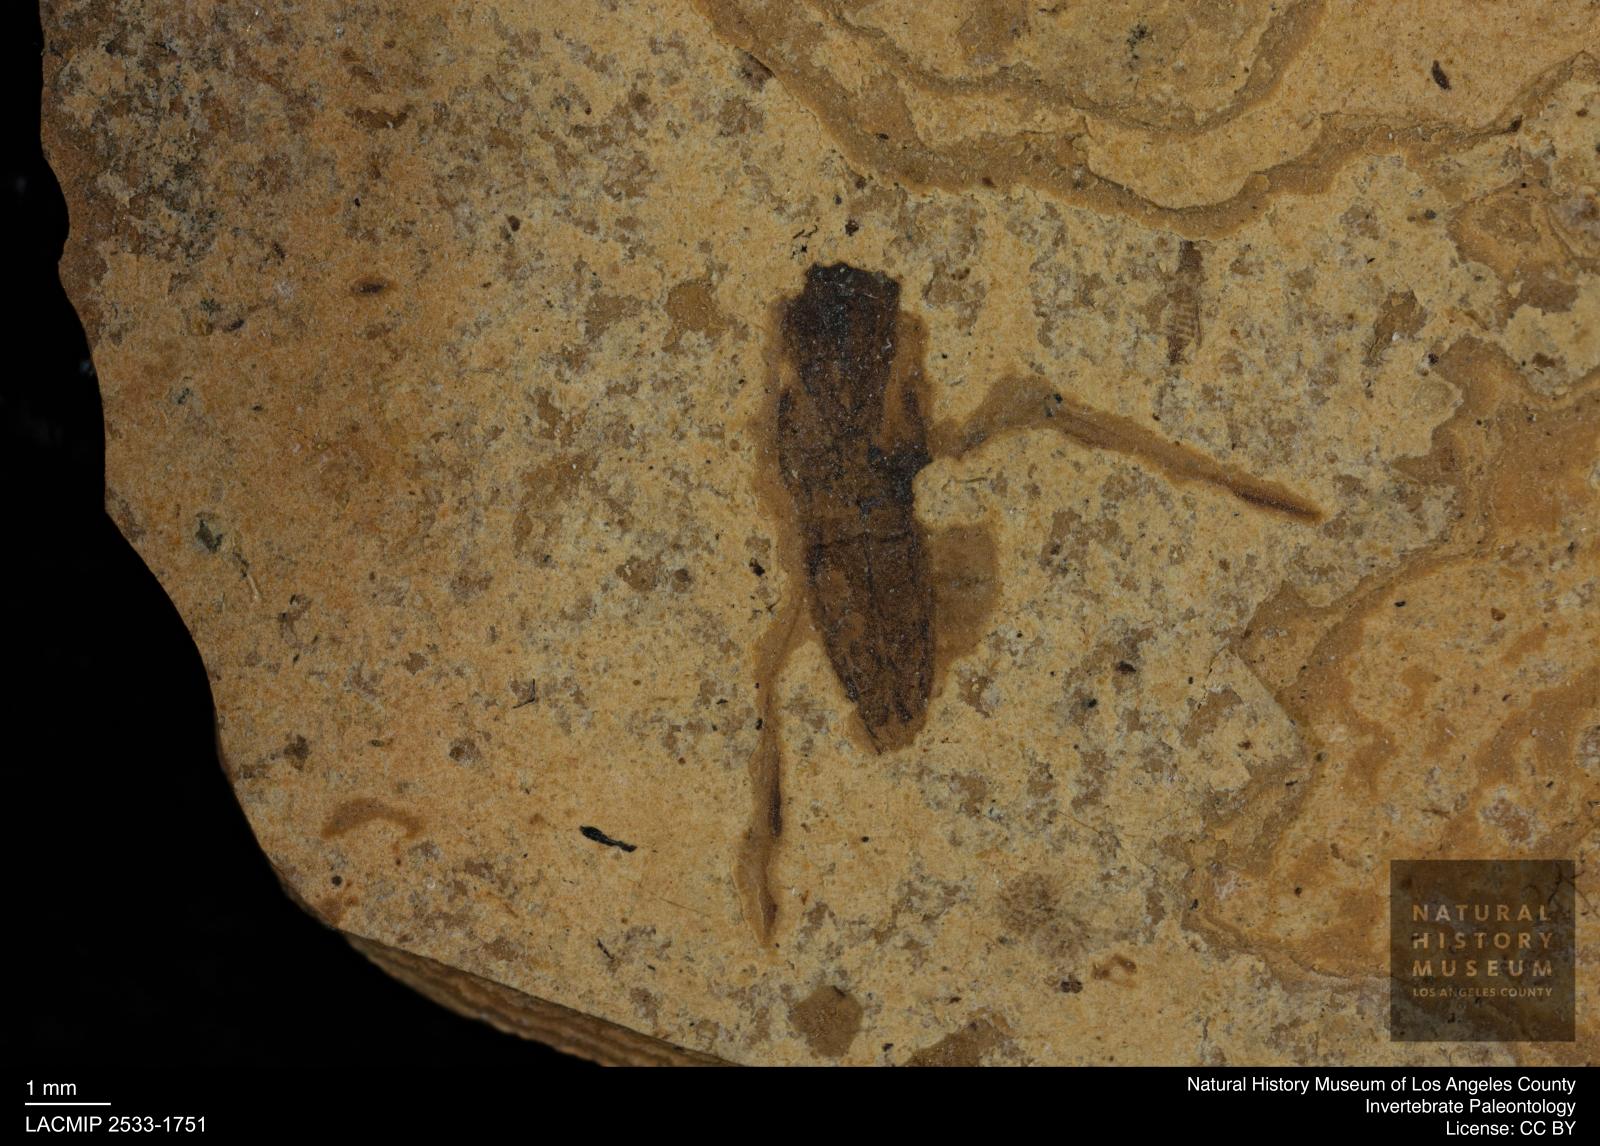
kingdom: Animalia
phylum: Arthropoda
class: Insecta
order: Hemiptera
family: Notonectidae
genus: Notonecta
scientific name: Notonecta
